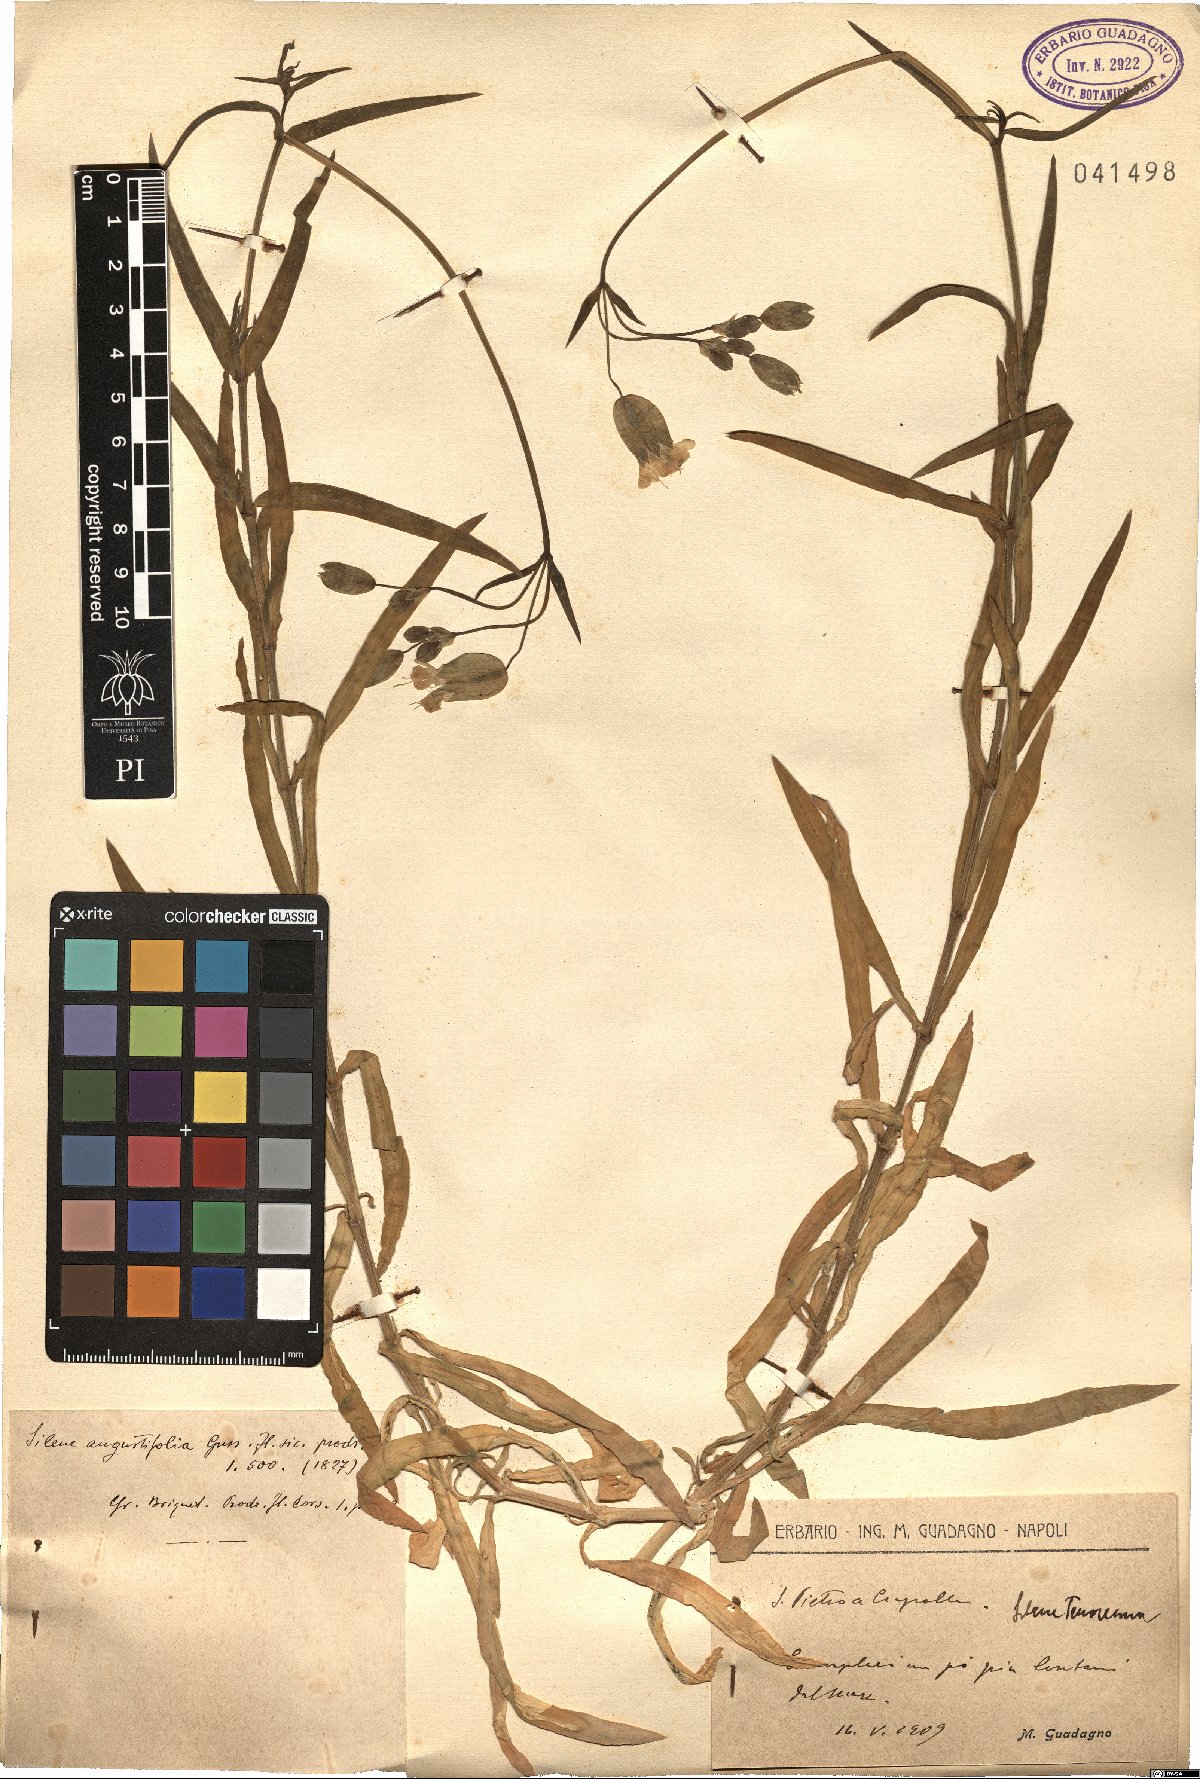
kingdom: Plantae
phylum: Tracheophyta
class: Magnoliopsida
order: Caryophyllales
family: Caryophyllaceae
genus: Silene
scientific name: Silene linearifolia
